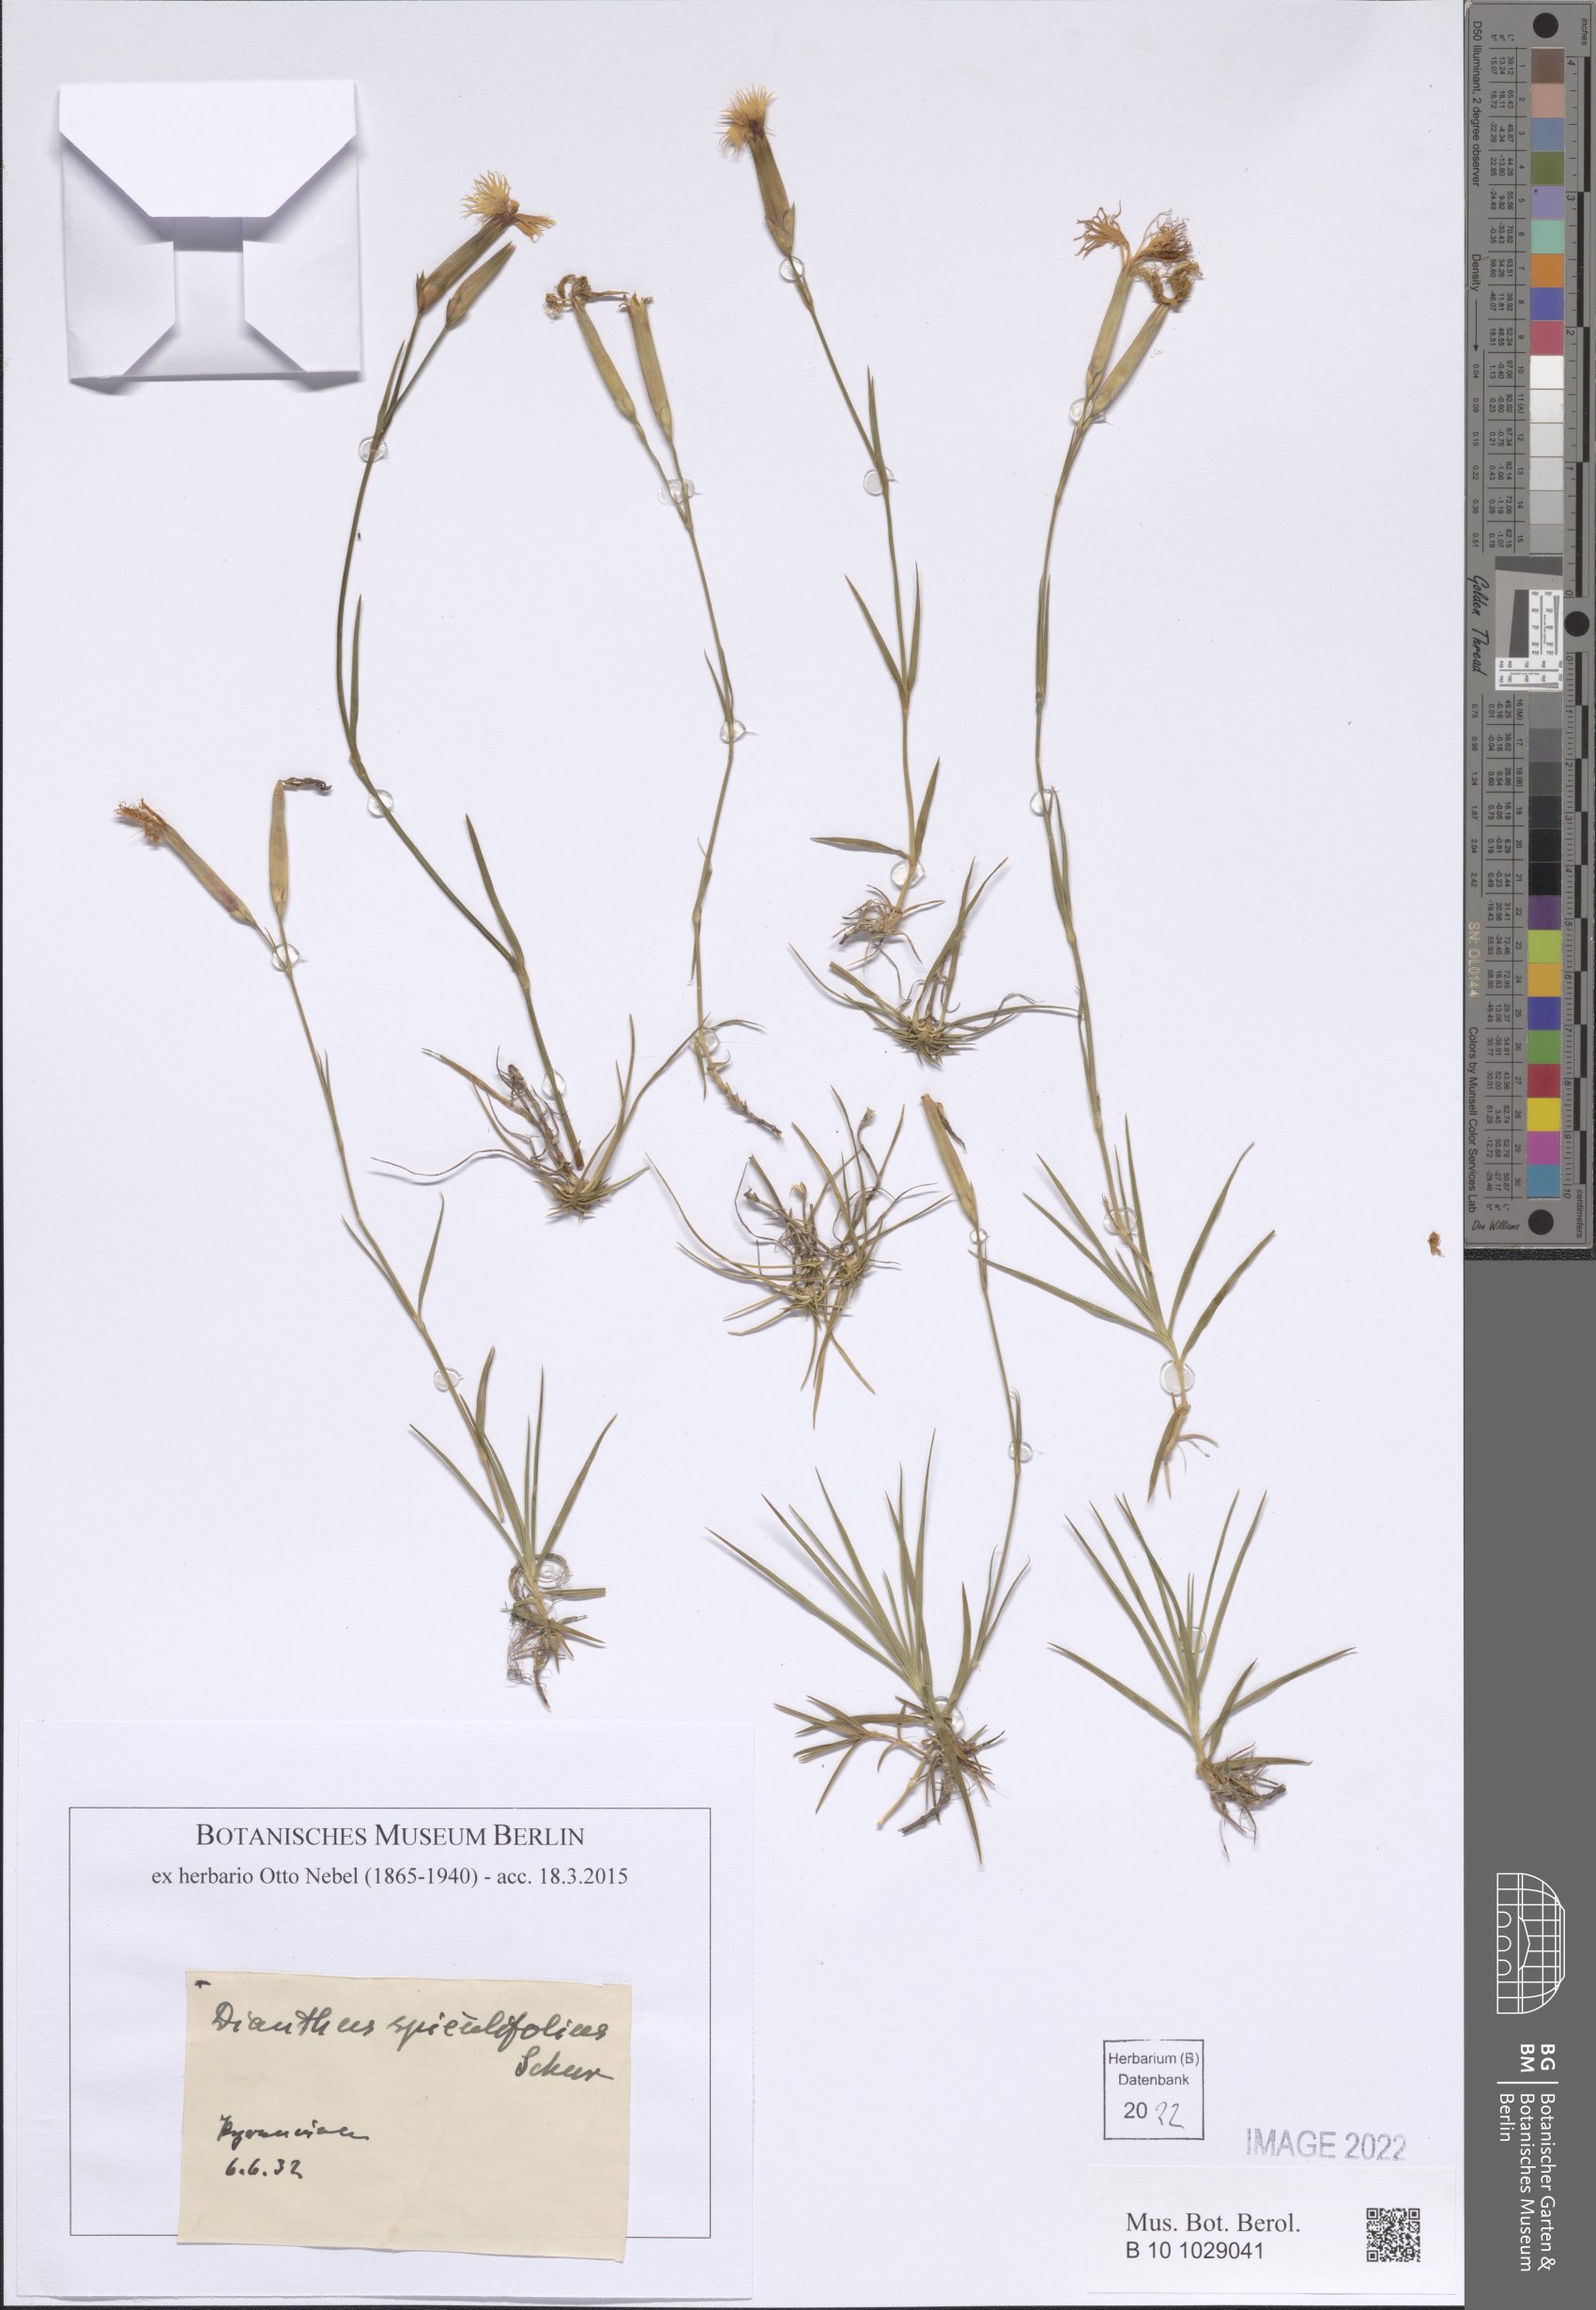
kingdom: Plantae
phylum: Tracheophyta
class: Magnoliopsida
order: Caryophyllales
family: Caryophyllaceae
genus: Dianthus
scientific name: Dianthus spiculifolius
